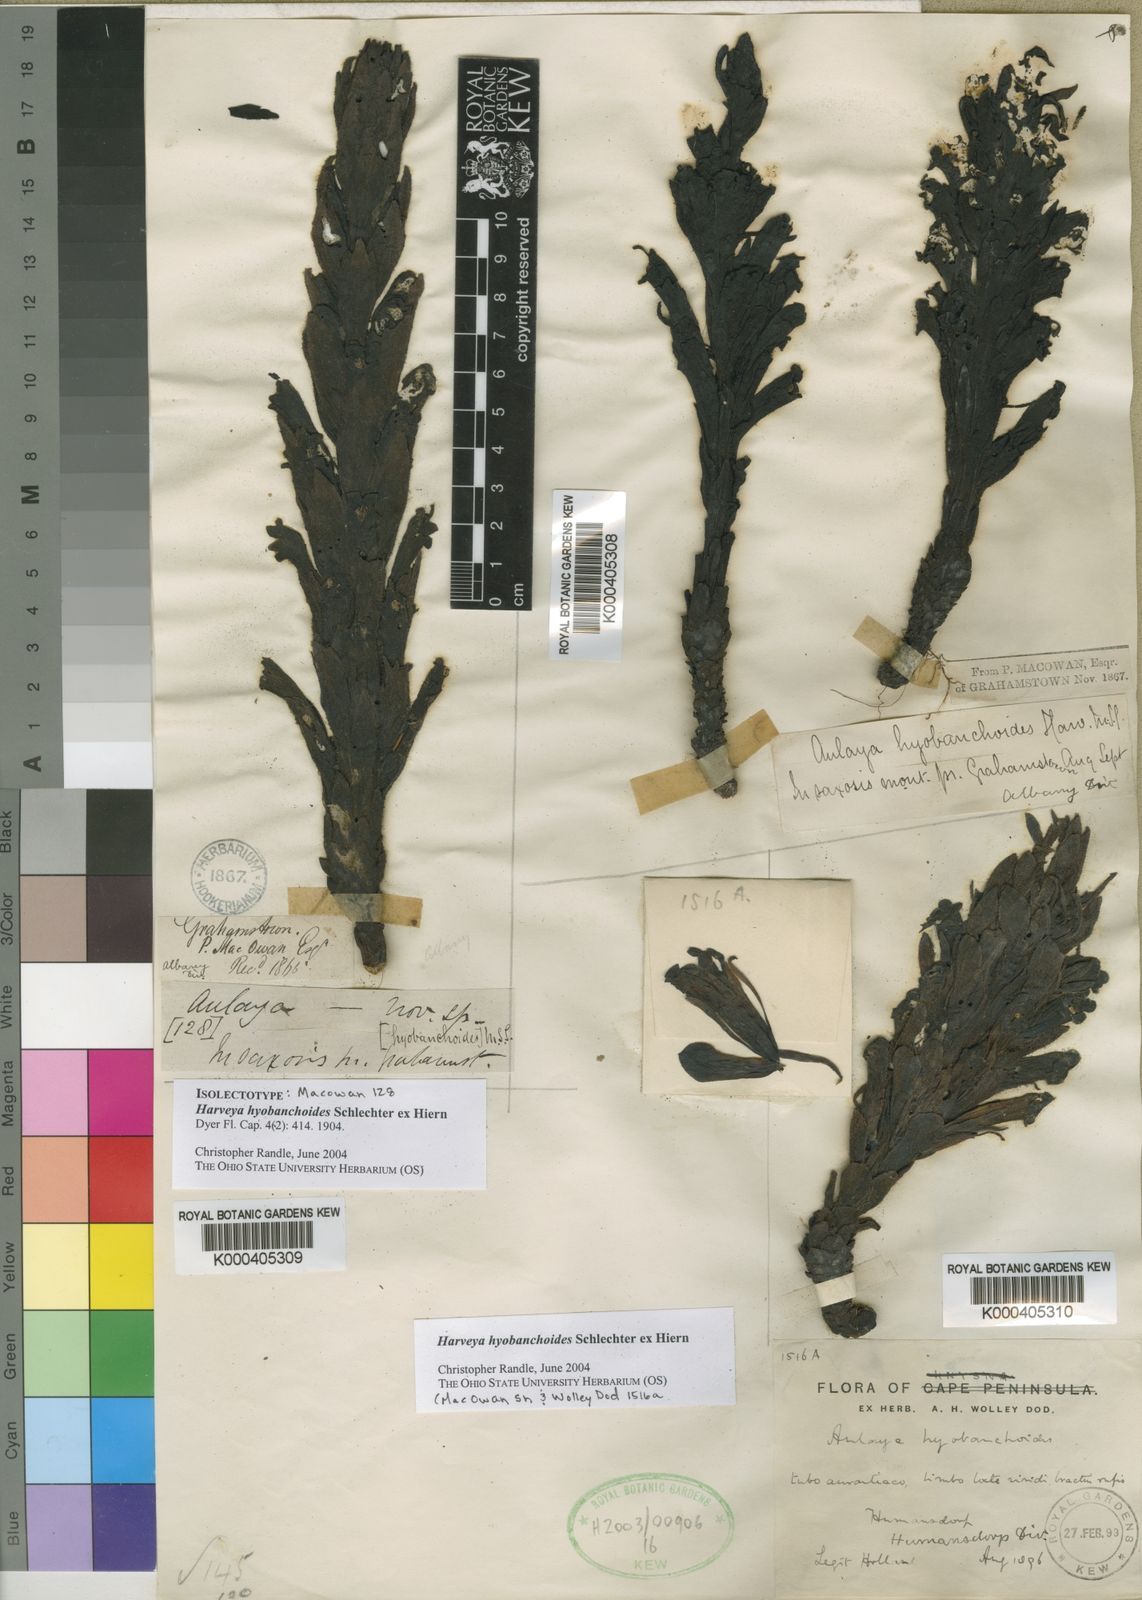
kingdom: Plantae
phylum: Tracheophyta
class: Magnoliopsida
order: Lamiales
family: Orobanchaceae
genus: Harveya
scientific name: Harveya hyobanchoides
